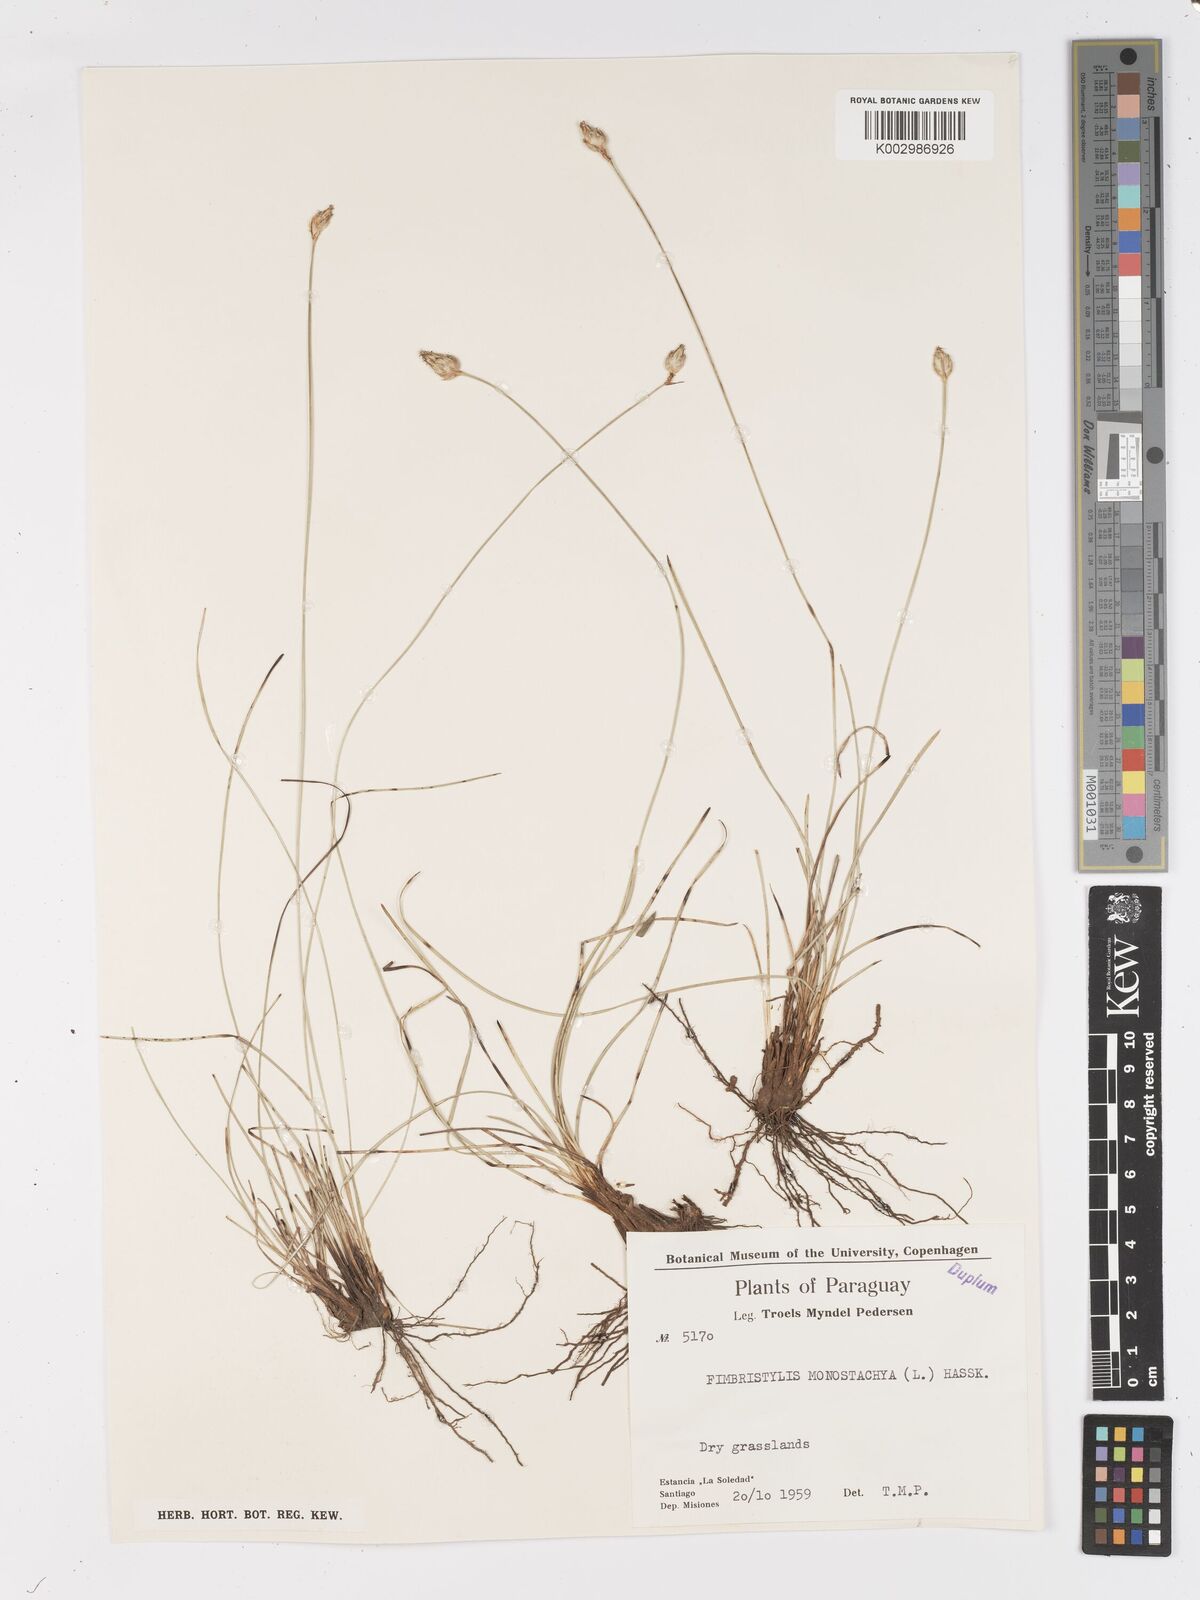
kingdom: Plantae
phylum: Tracheophyta
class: Liliopsida
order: Poales
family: Cyperaceae
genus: Abildgaardia
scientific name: Abildgaardia ovata
